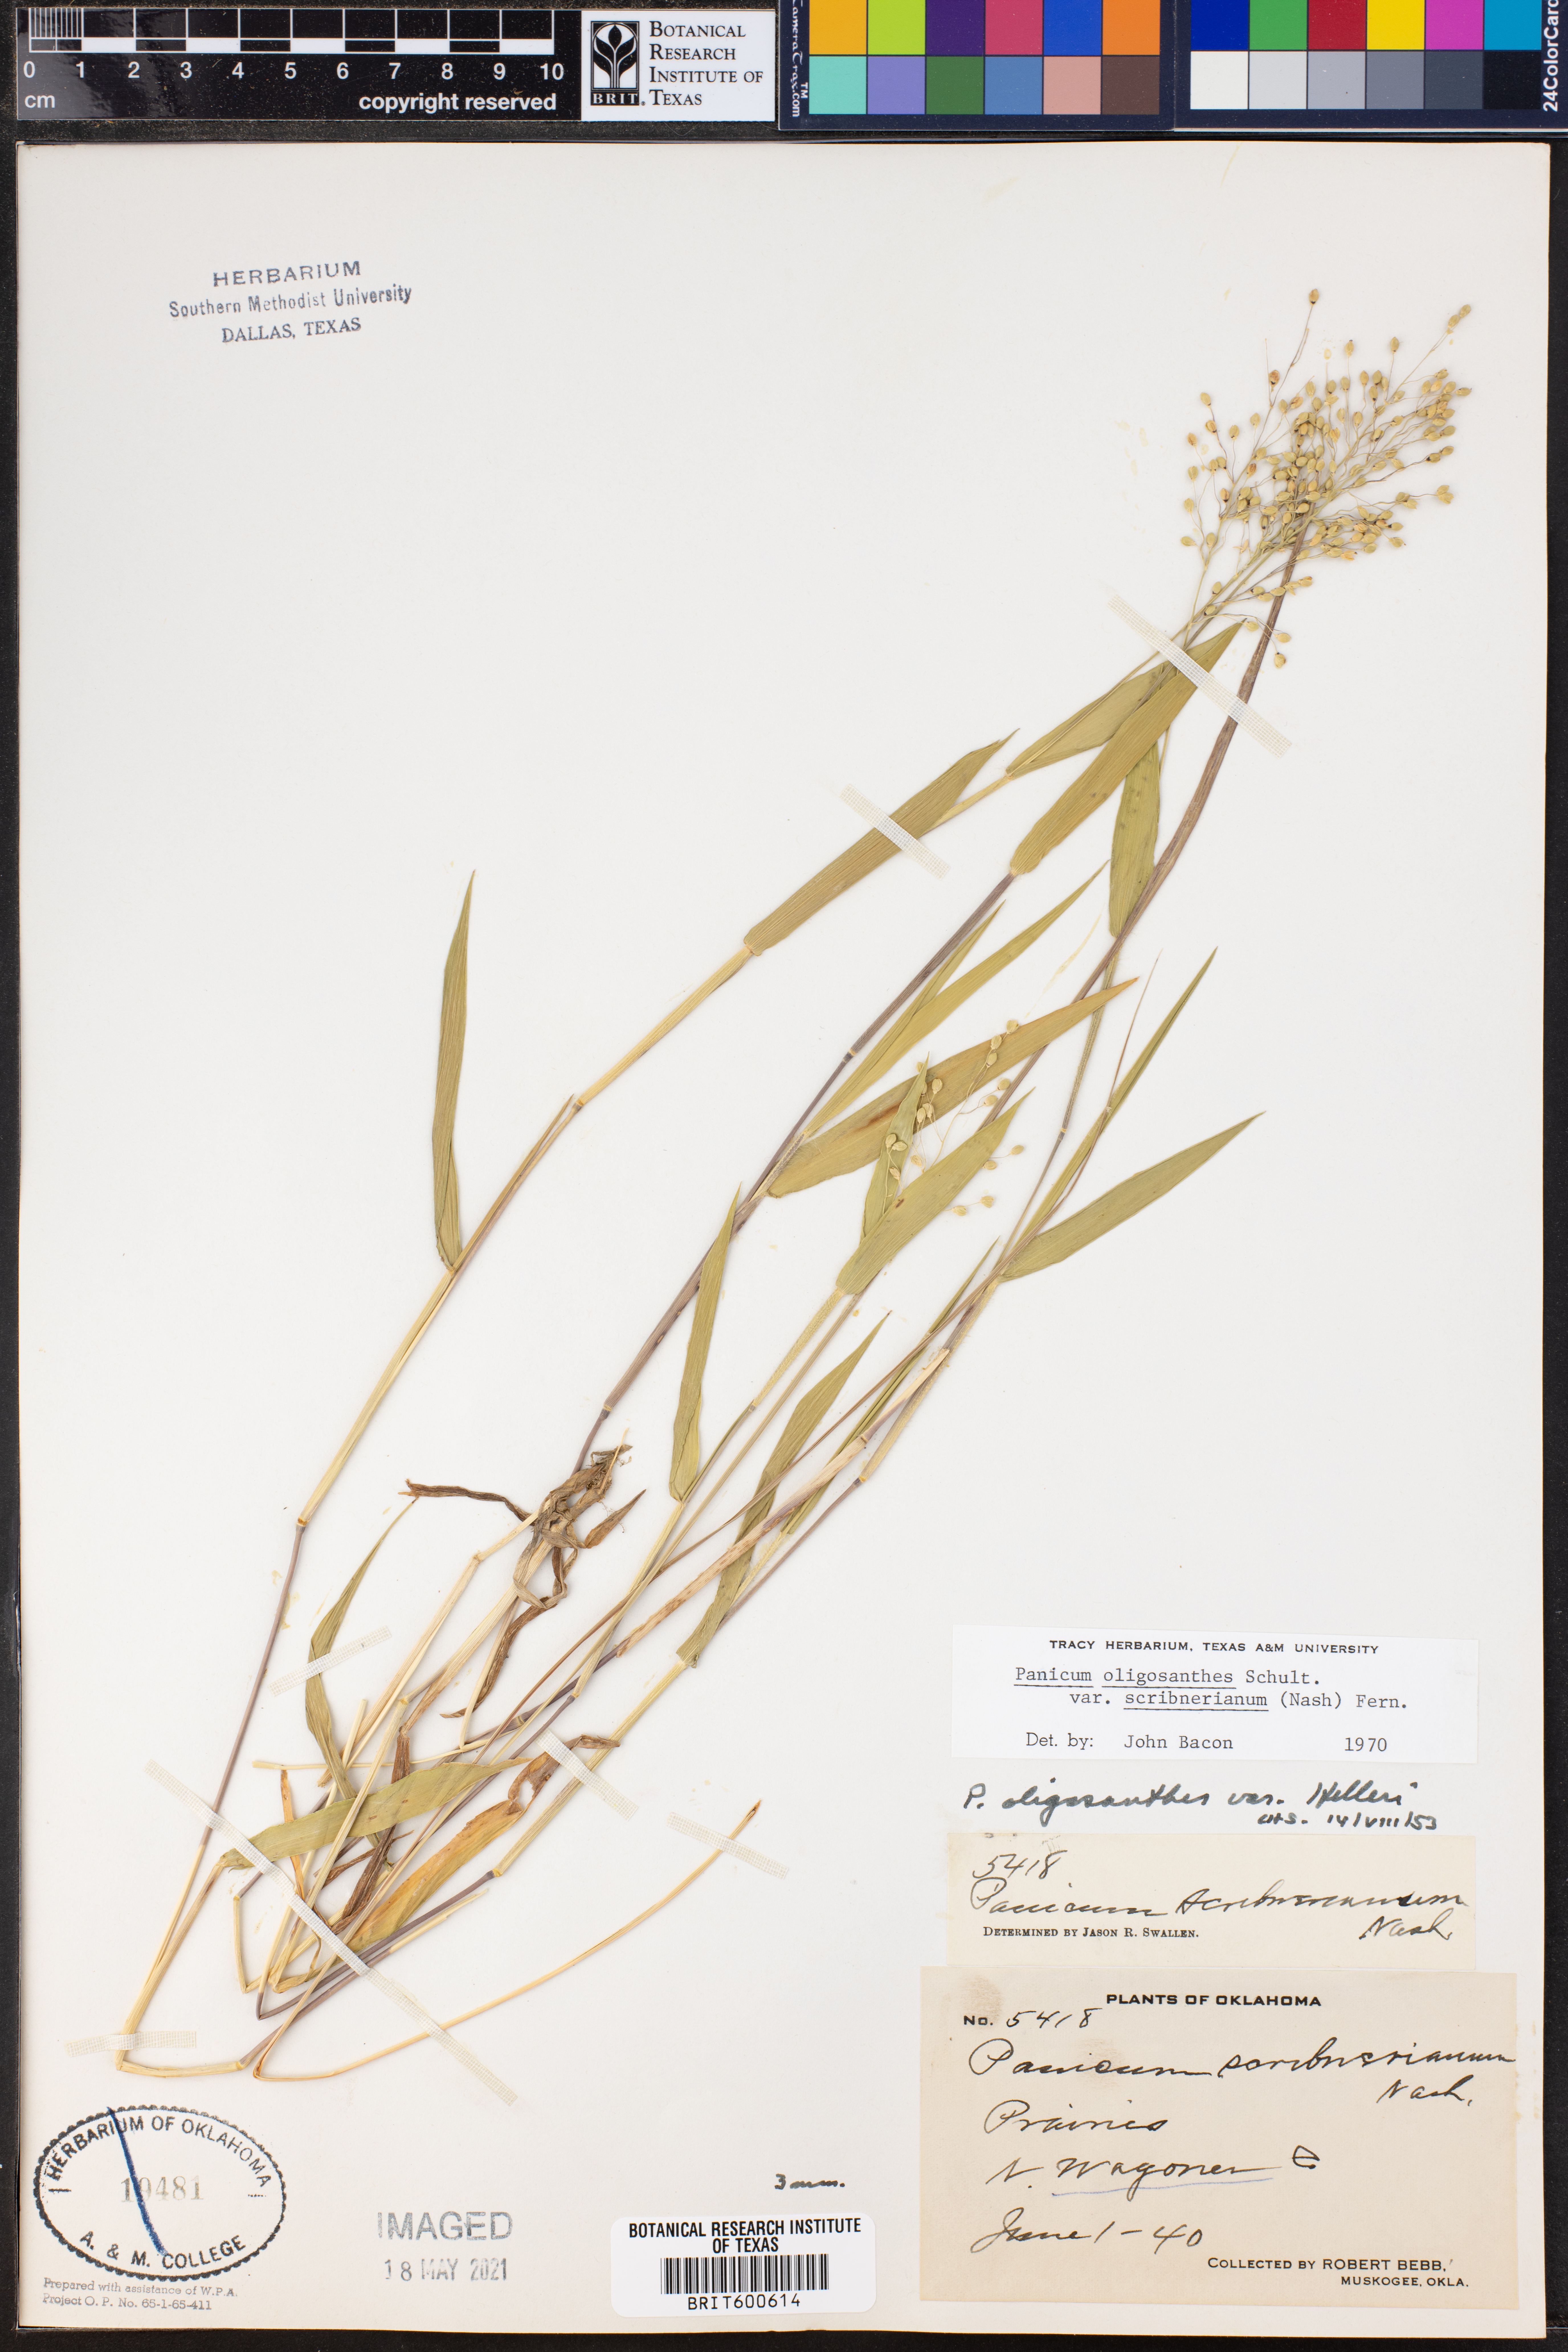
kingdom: Plantae
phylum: Tracheophyta
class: Liliopsida
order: Poales
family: Poaceae
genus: Dichanthelium
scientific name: Dichanthelium scribnerianum
